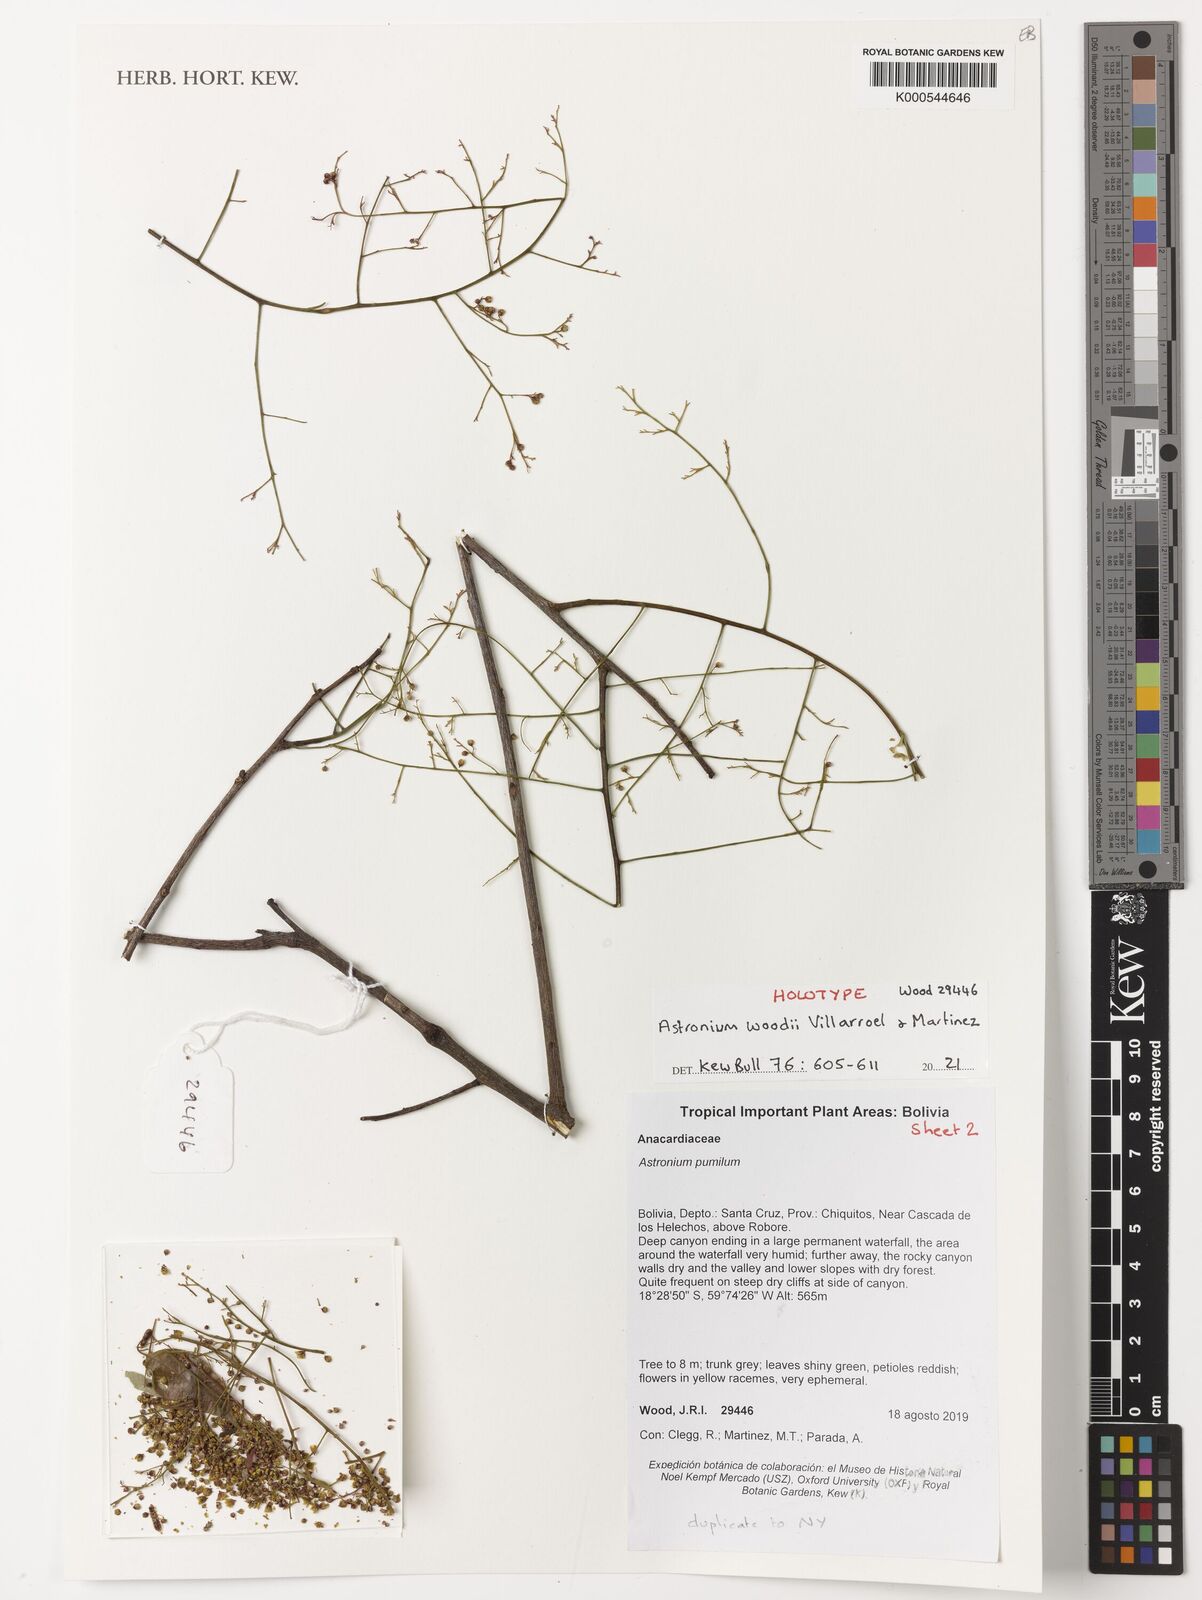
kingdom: Plantae
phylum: Tracheophyta
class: Magnoliopsida
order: Sapindales
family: Anacardiaceae
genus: Astronium
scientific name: Astronium
